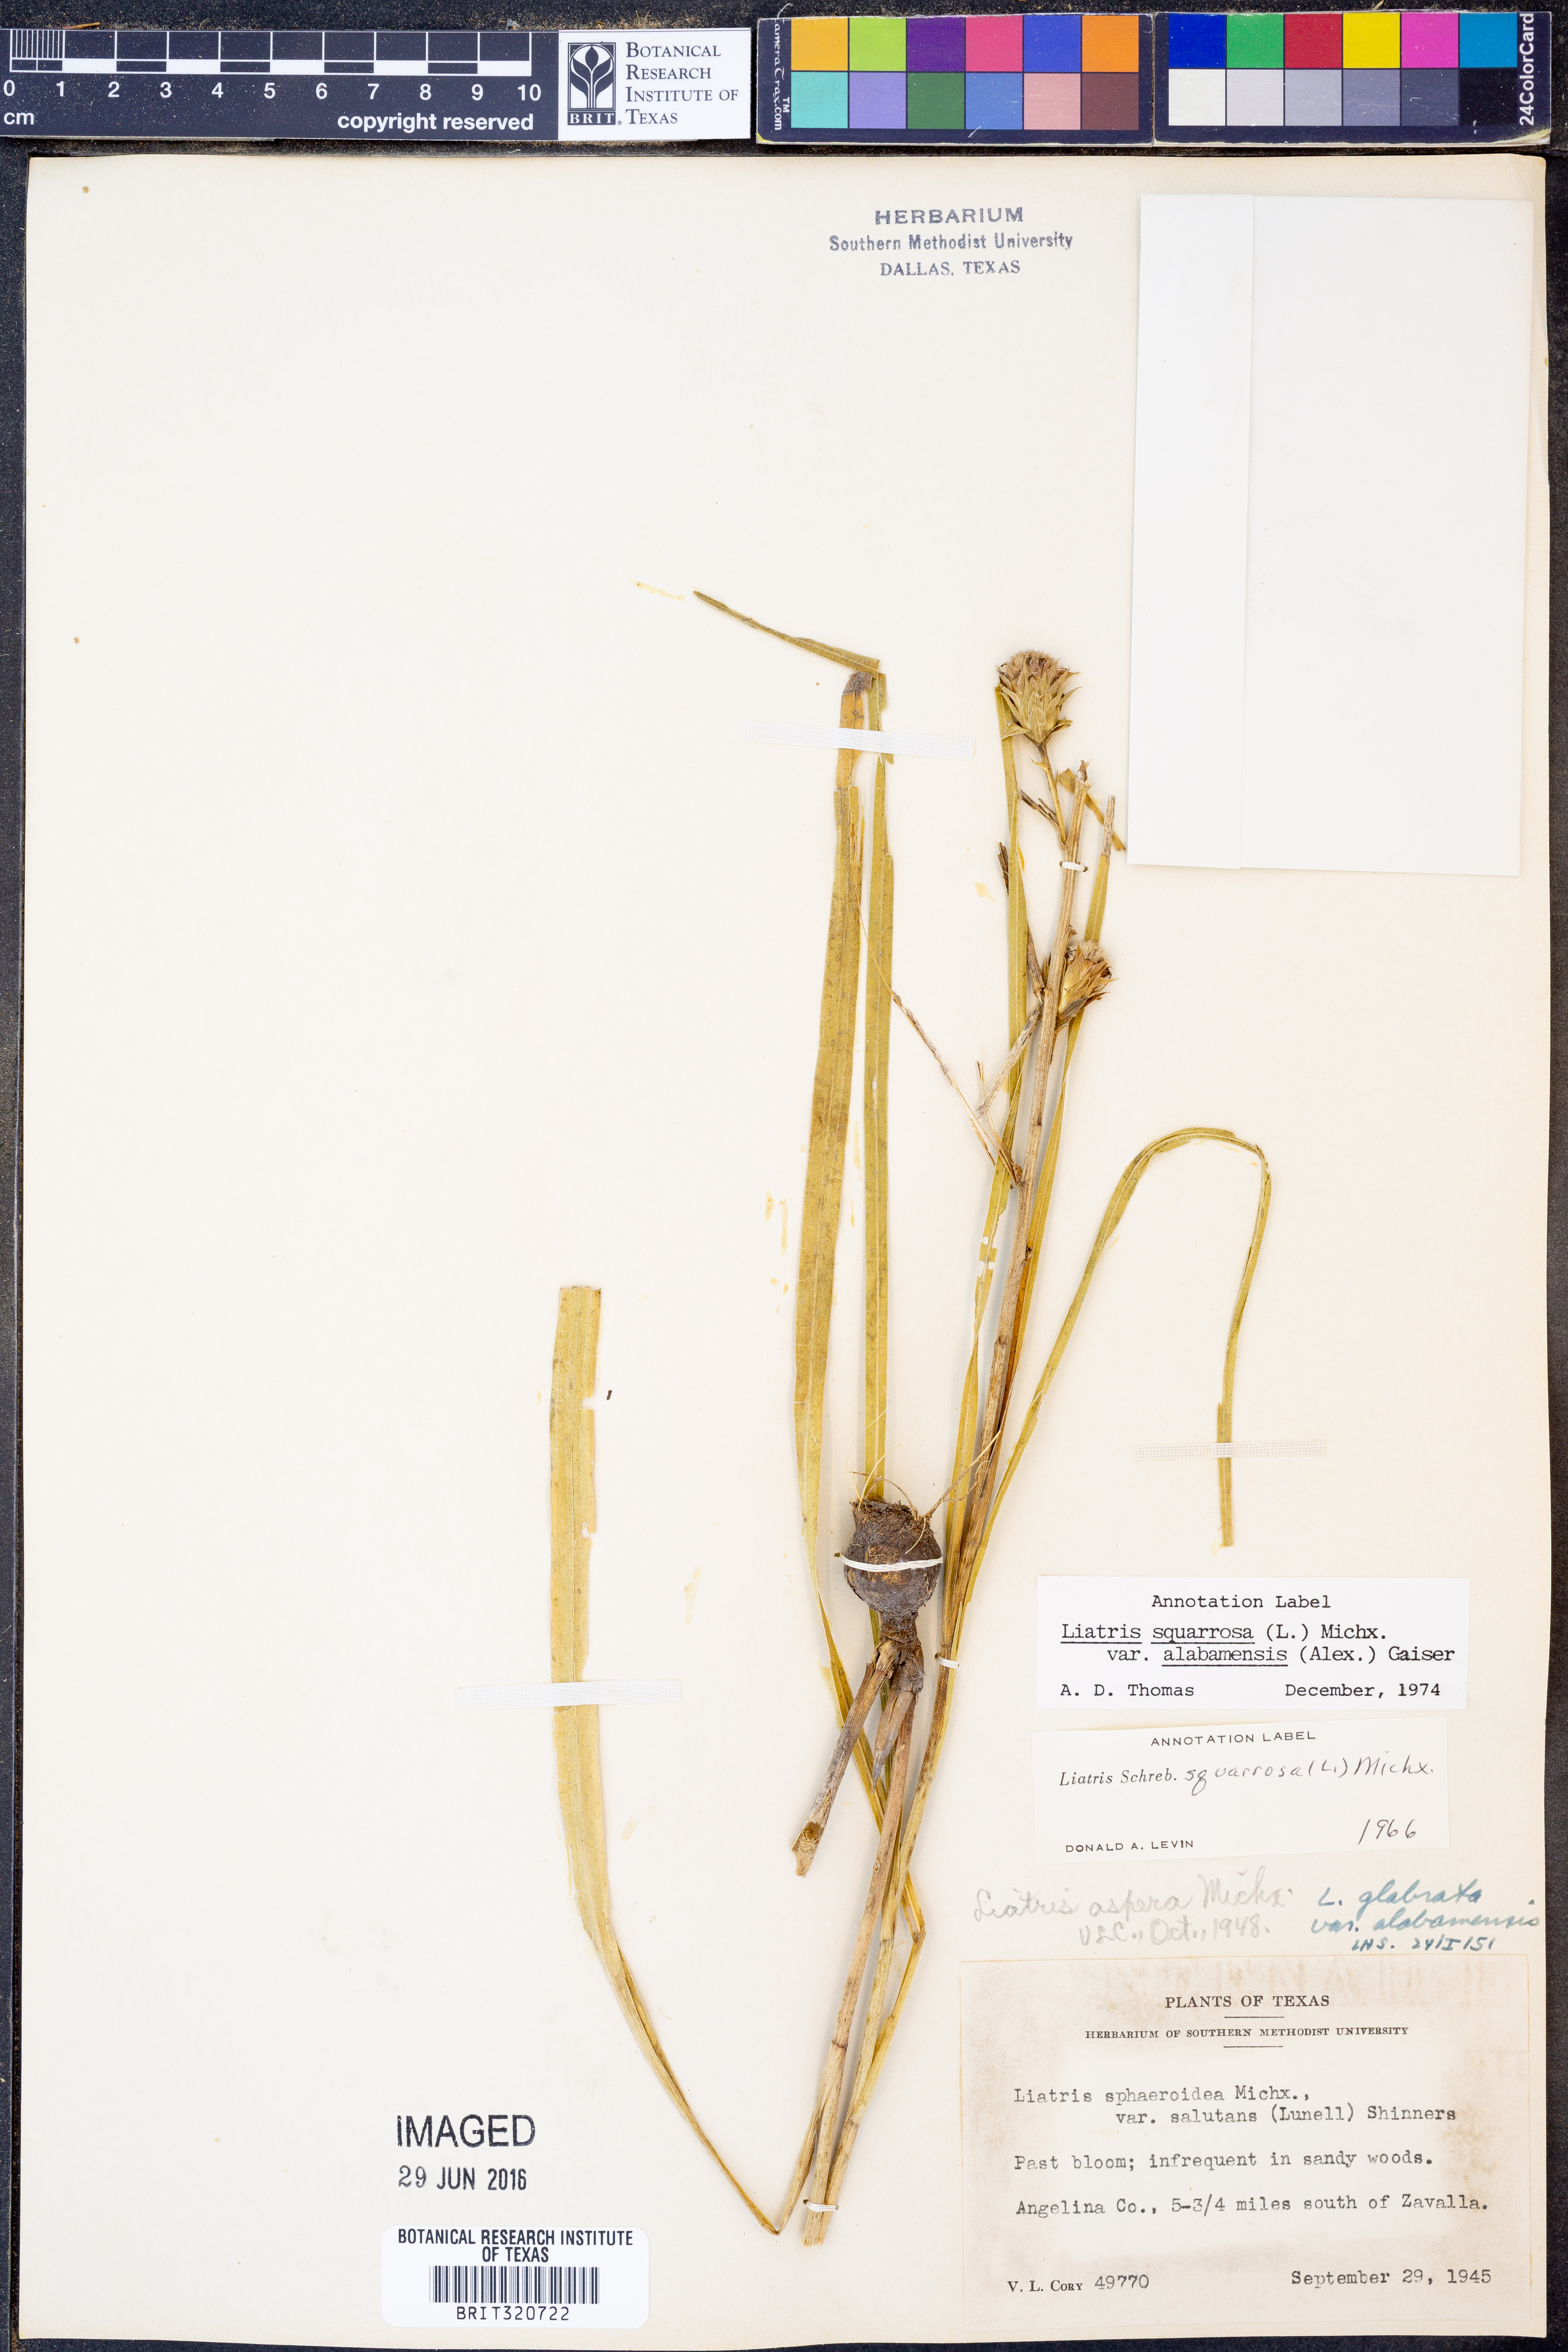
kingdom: Plantae
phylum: Tracheophyta
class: Magnoliopsida
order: Asterales
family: Asteraceae
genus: Liatris
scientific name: Liatris squarrosa
